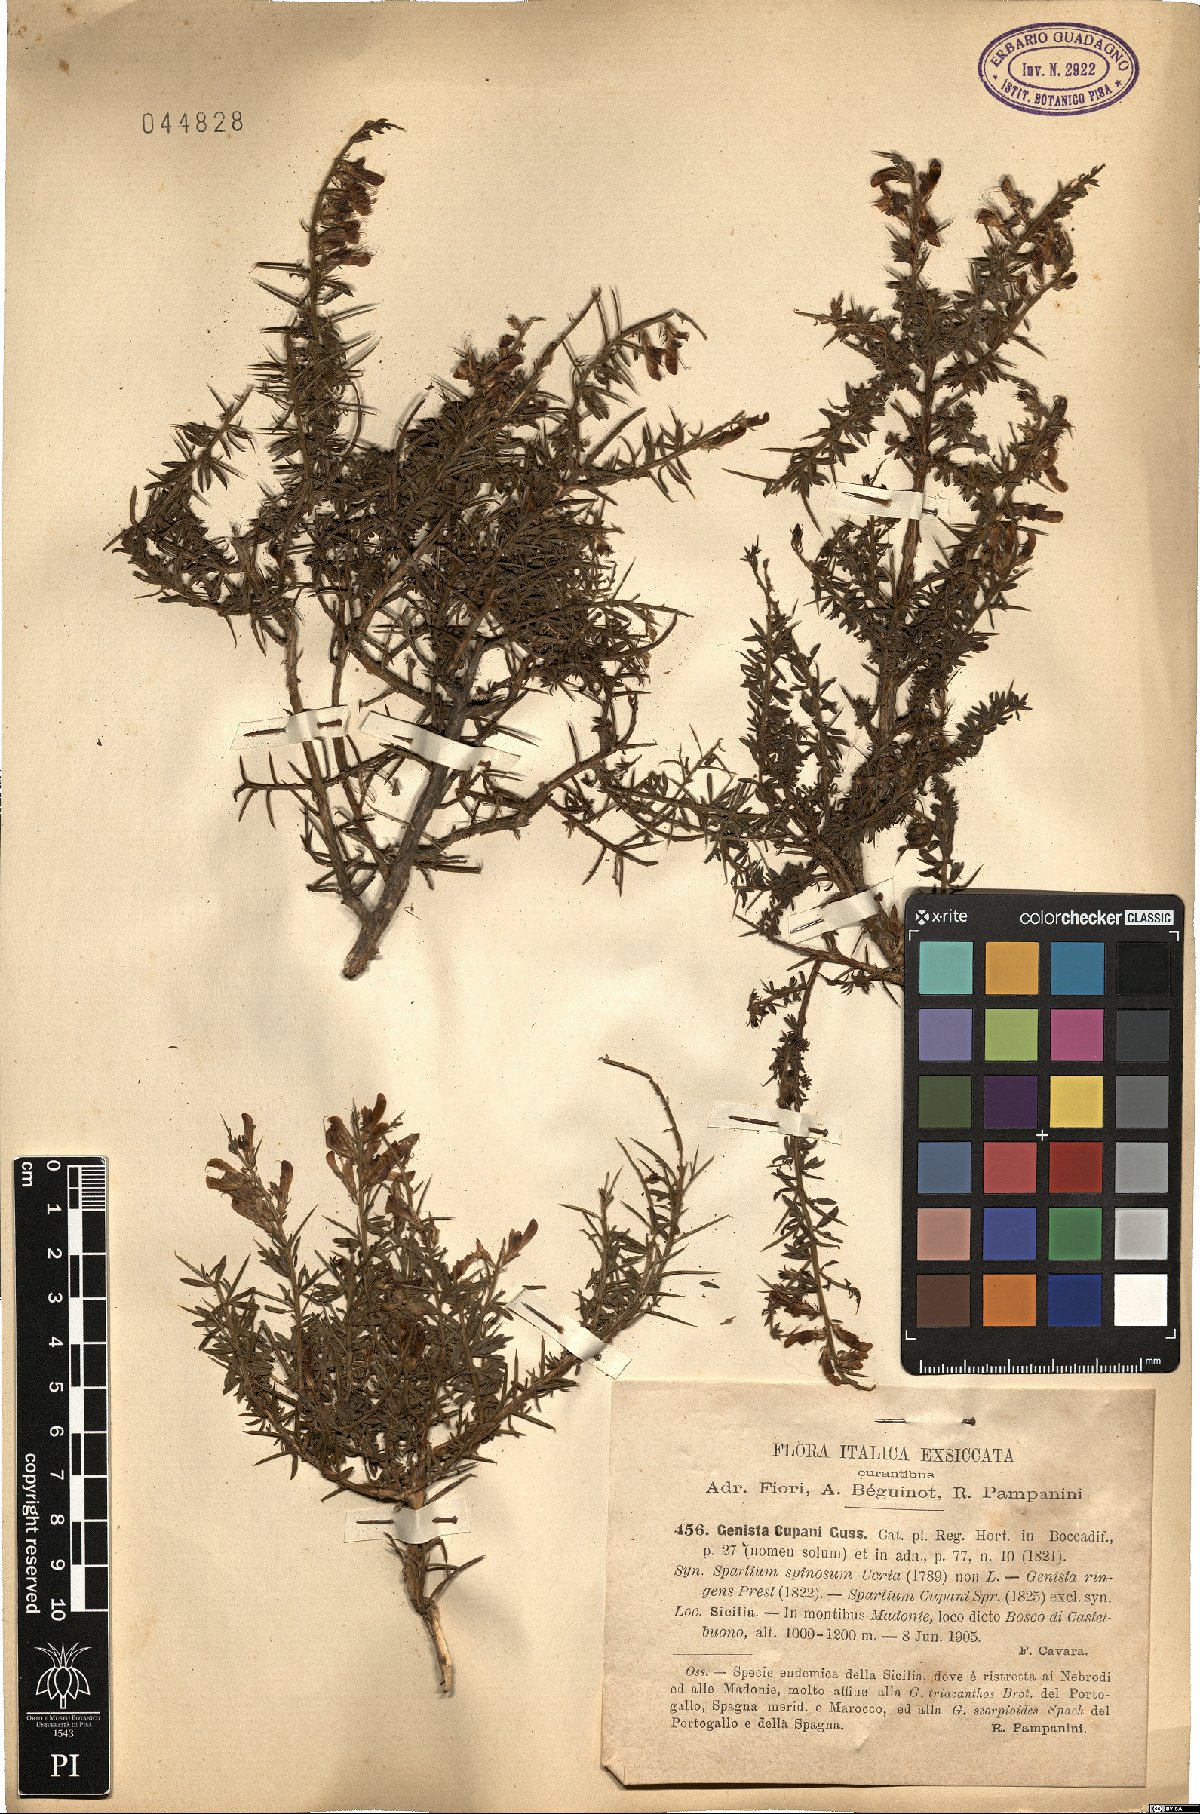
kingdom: Plantae
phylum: Tracheophyta
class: Magnoliopsida
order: Fabales
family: Fabaceae
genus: Genista
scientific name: Genista cupanii
